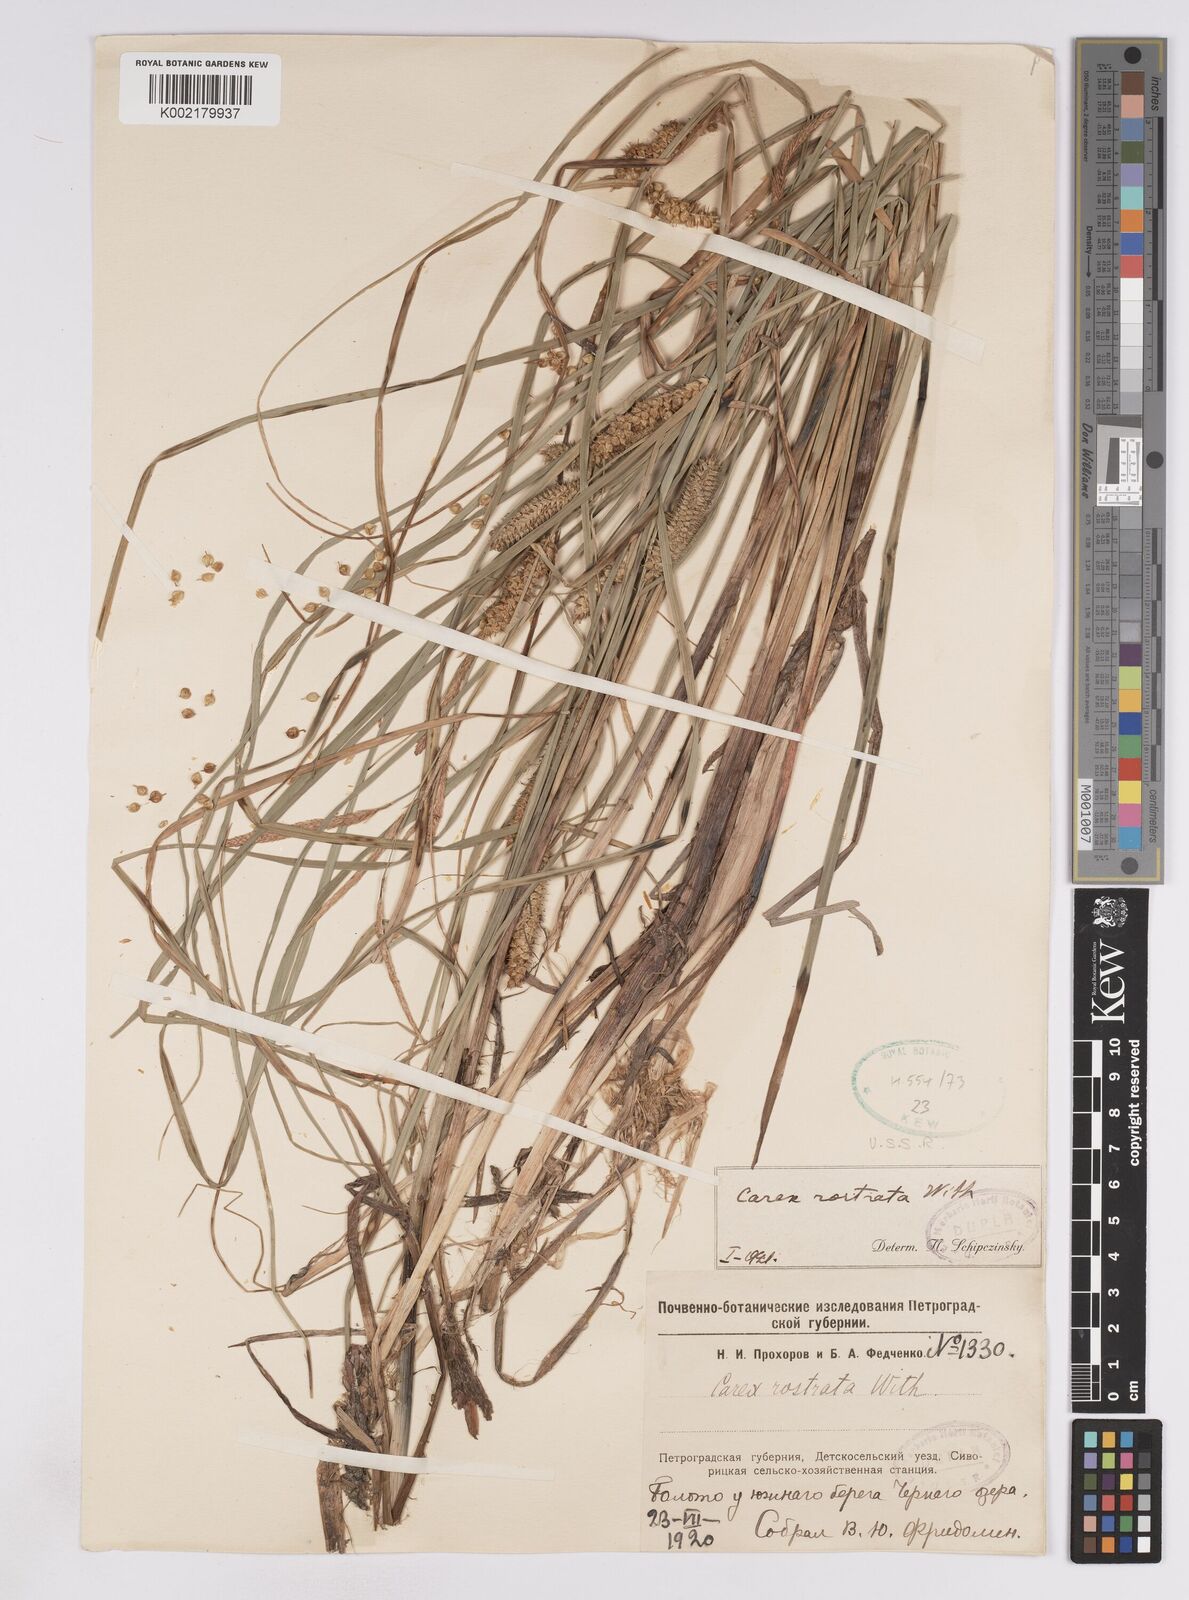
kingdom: Plantae
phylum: Tracheophyta
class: Liliopsida
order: Poales
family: Cyperaceae
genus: Carex
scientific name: Carex utriculata
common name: Beaked sedge
